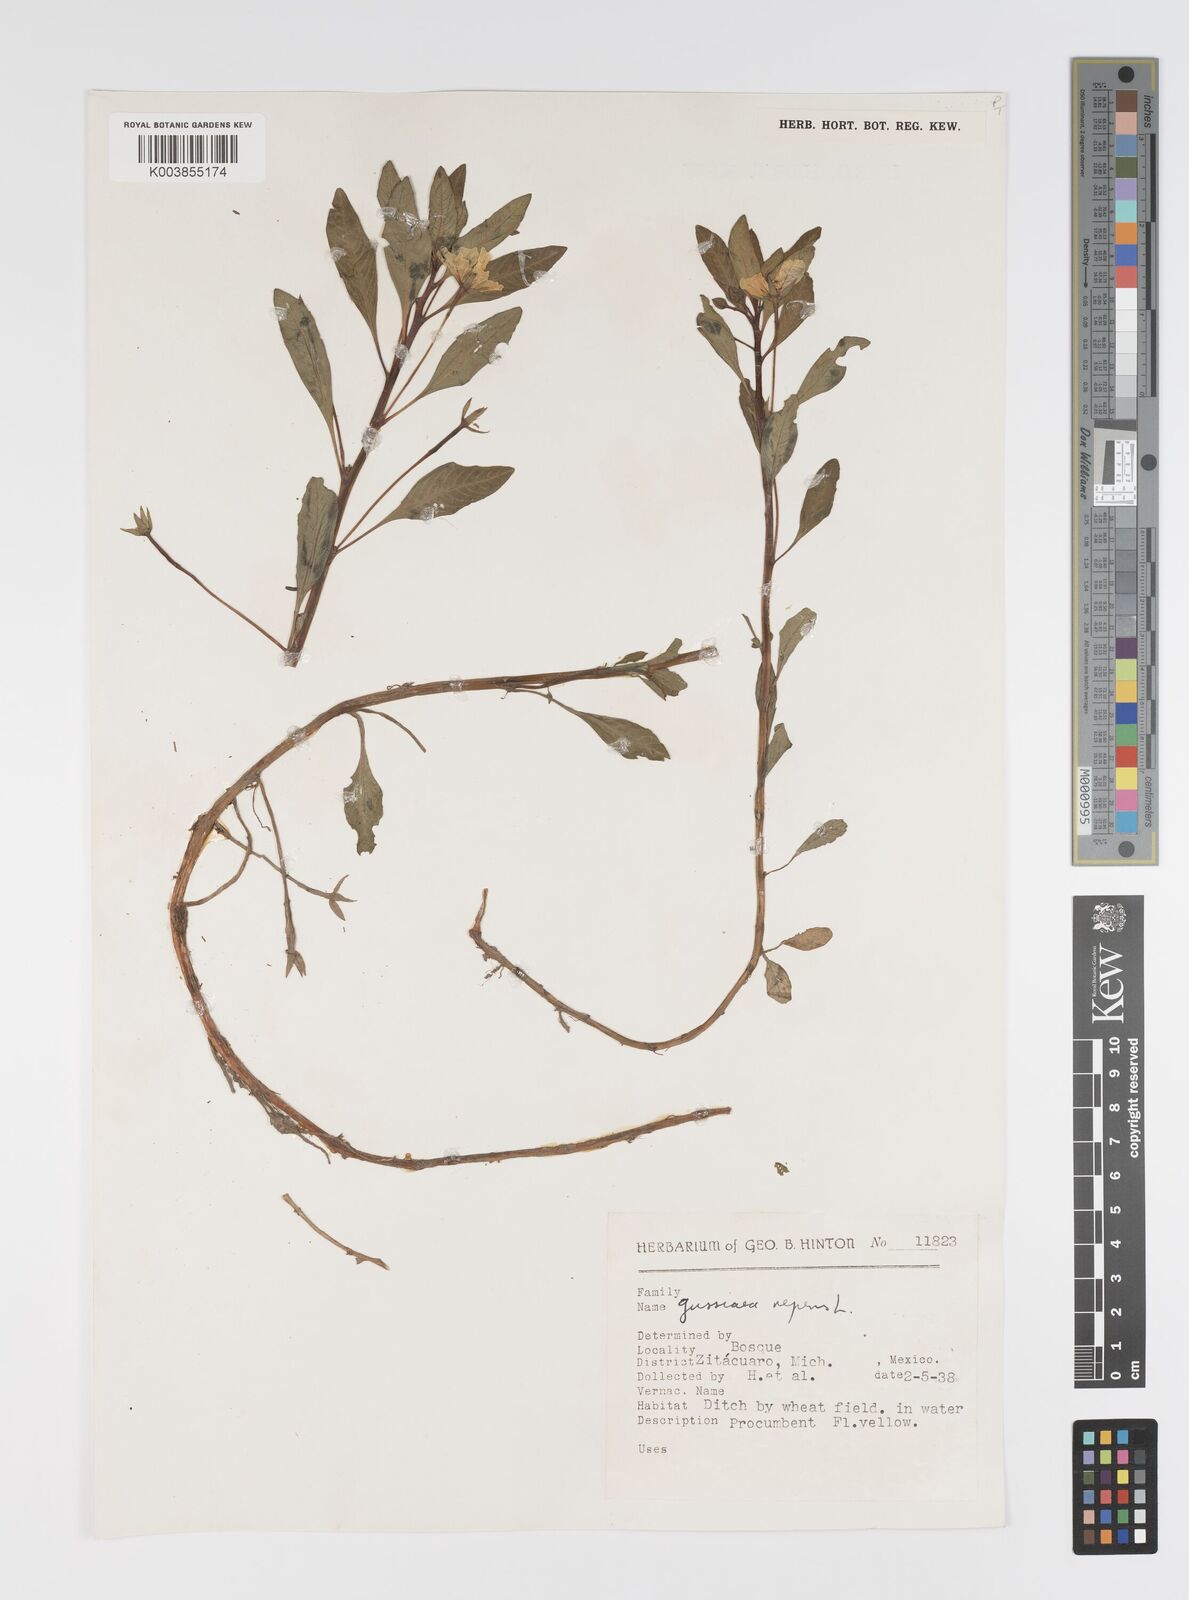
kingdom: Plantae
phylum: Tracheophyta
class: Magnoliopsida
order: Myrtales
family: Onagraceae
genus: Ludwigia
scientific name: Ludwigia peploides
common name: Floating primrose-willow
